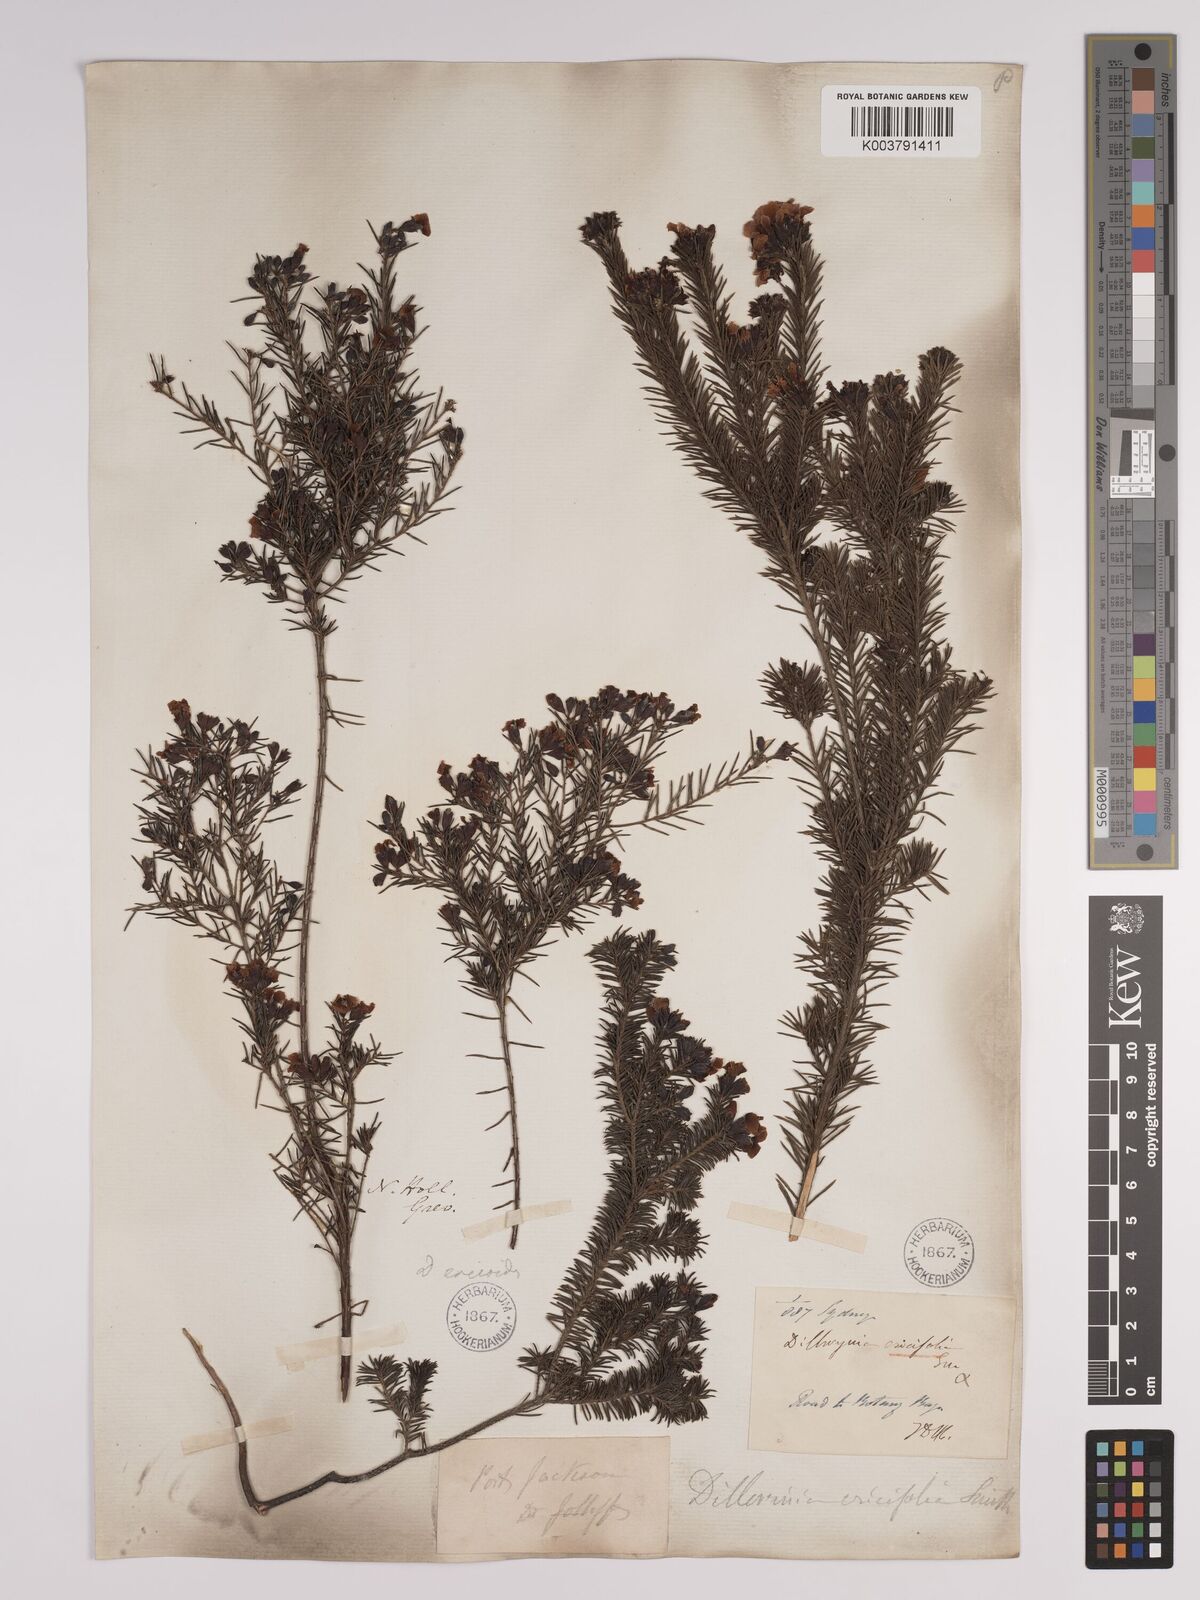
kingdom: Plantae
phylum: Tracheophyta
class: Magnoliopsida
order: Fabales
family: Fabaceae
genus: Dillwynia
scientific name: Dillwynia retorta
